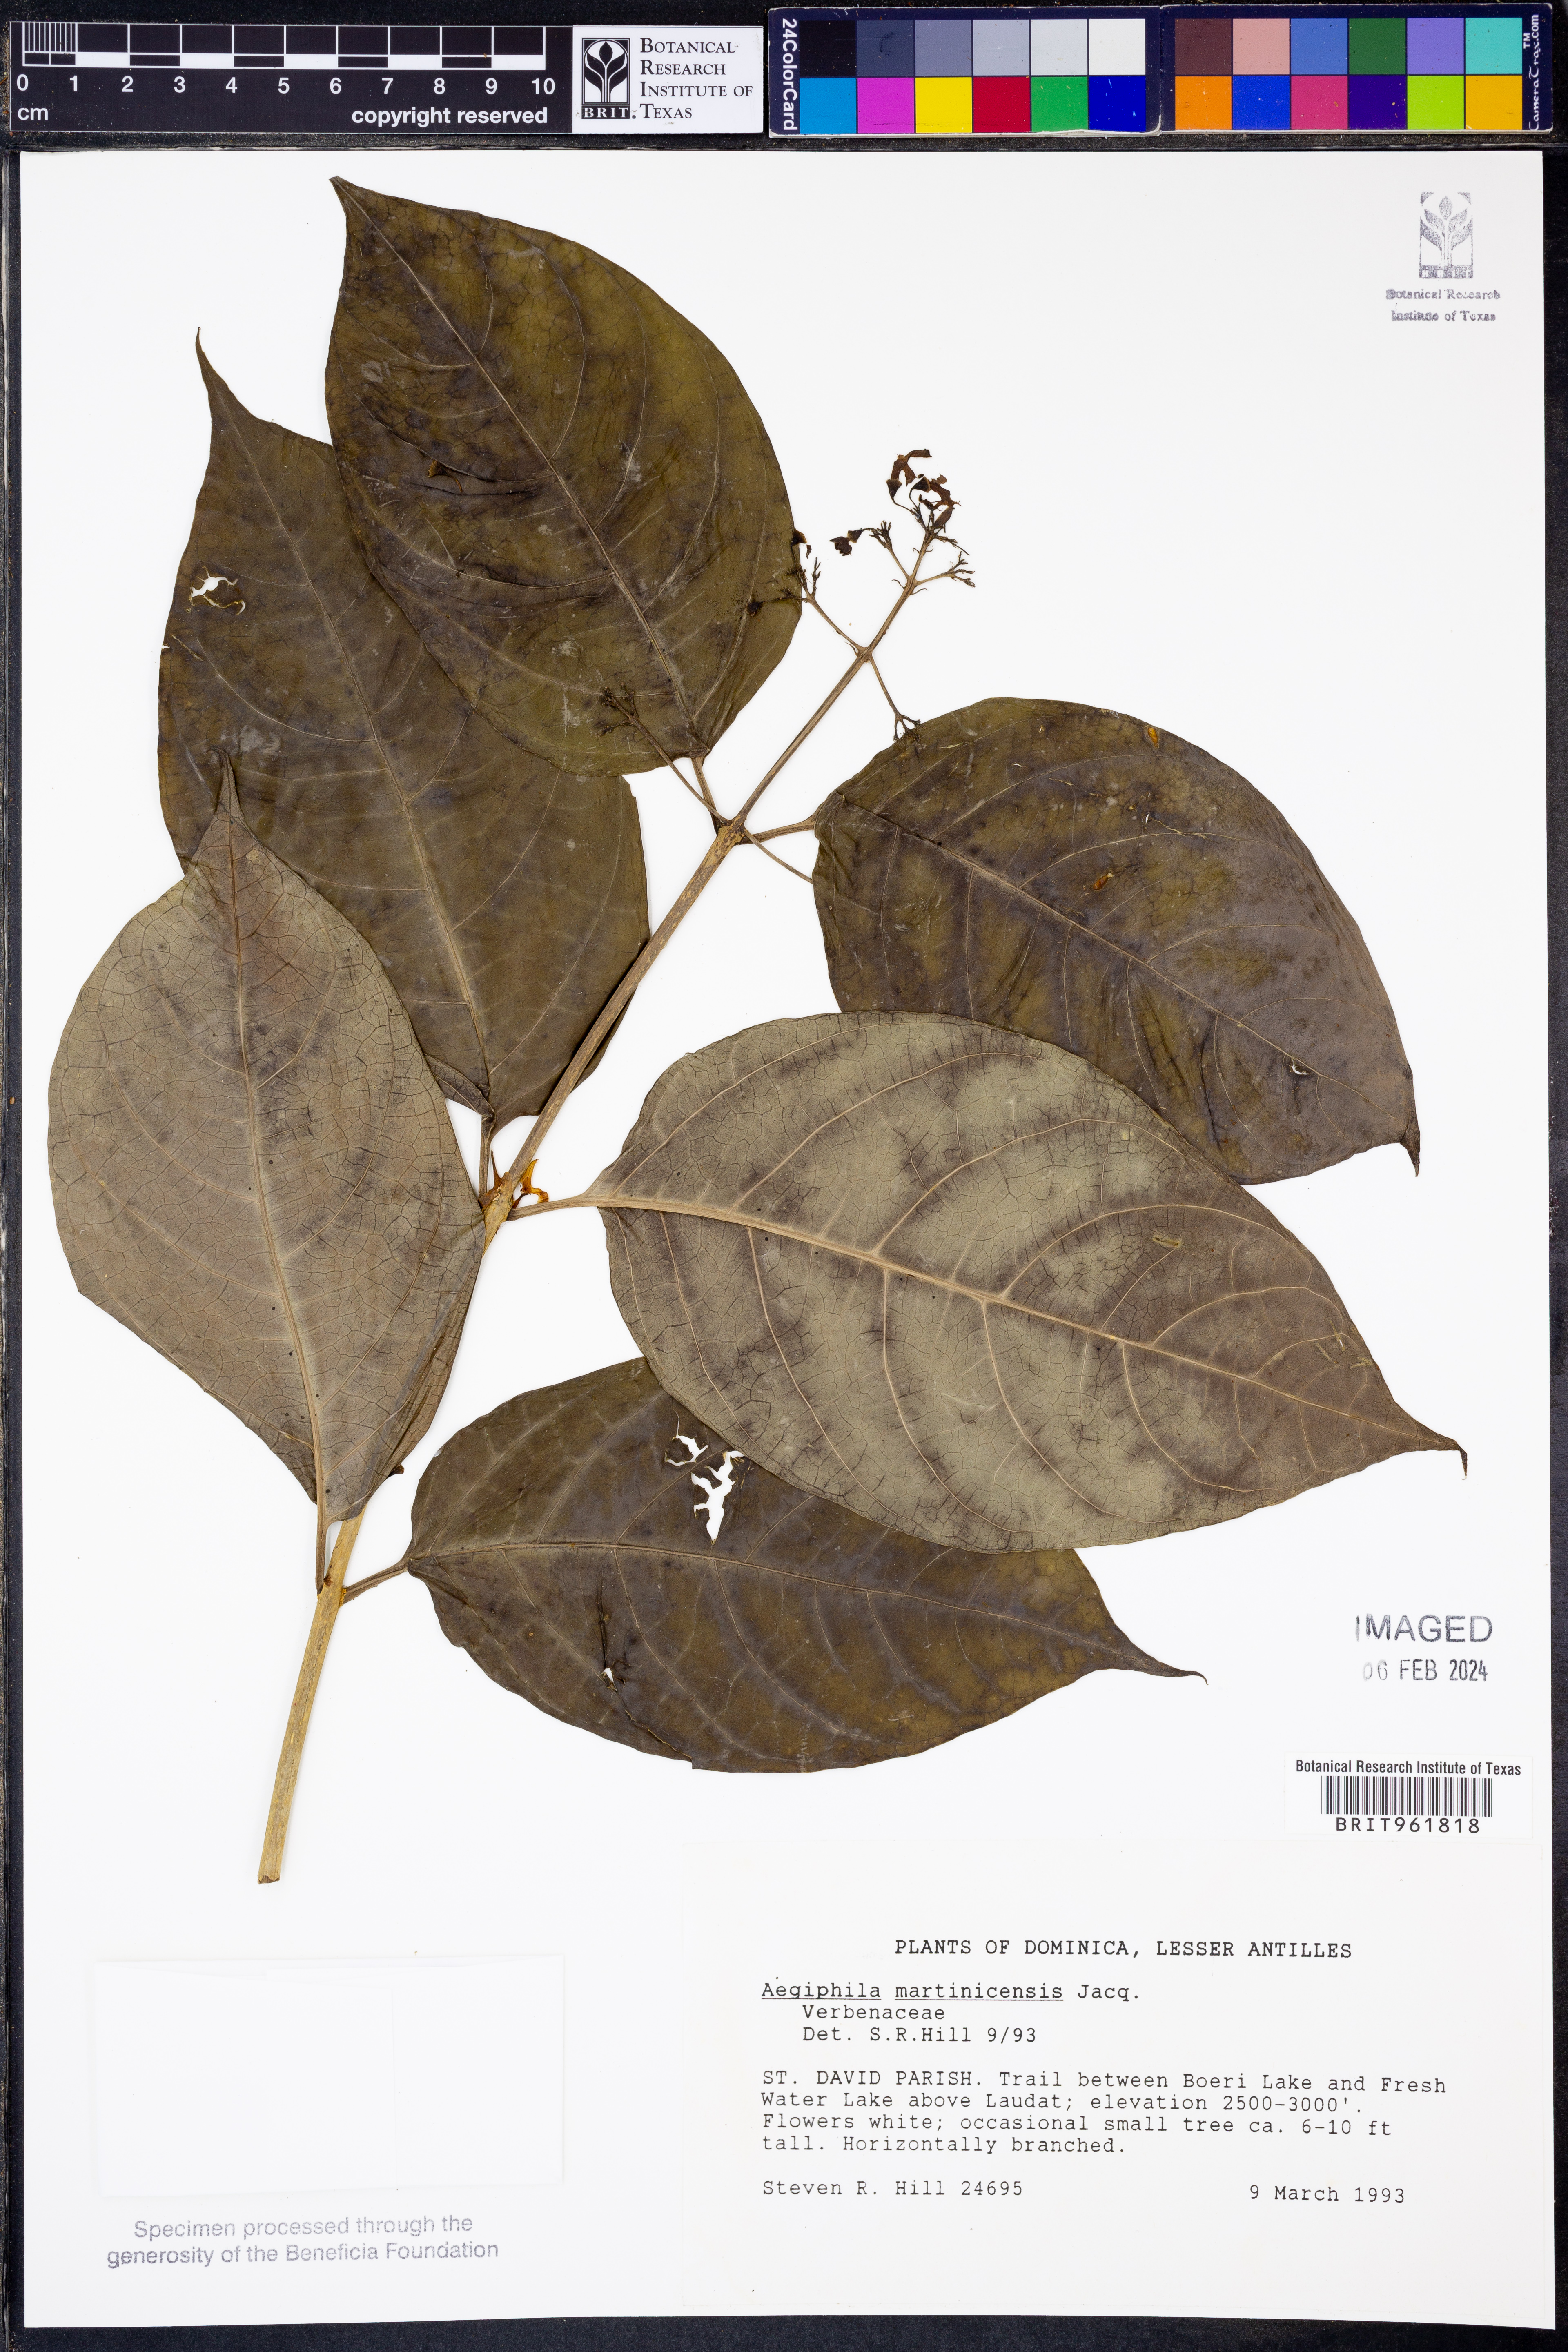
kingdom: Plantae
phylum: Tracheophyta
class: Magnoliopsida
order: Lamiales
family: Lamiaceae
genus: Aegiphila
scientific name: Aegiphila
